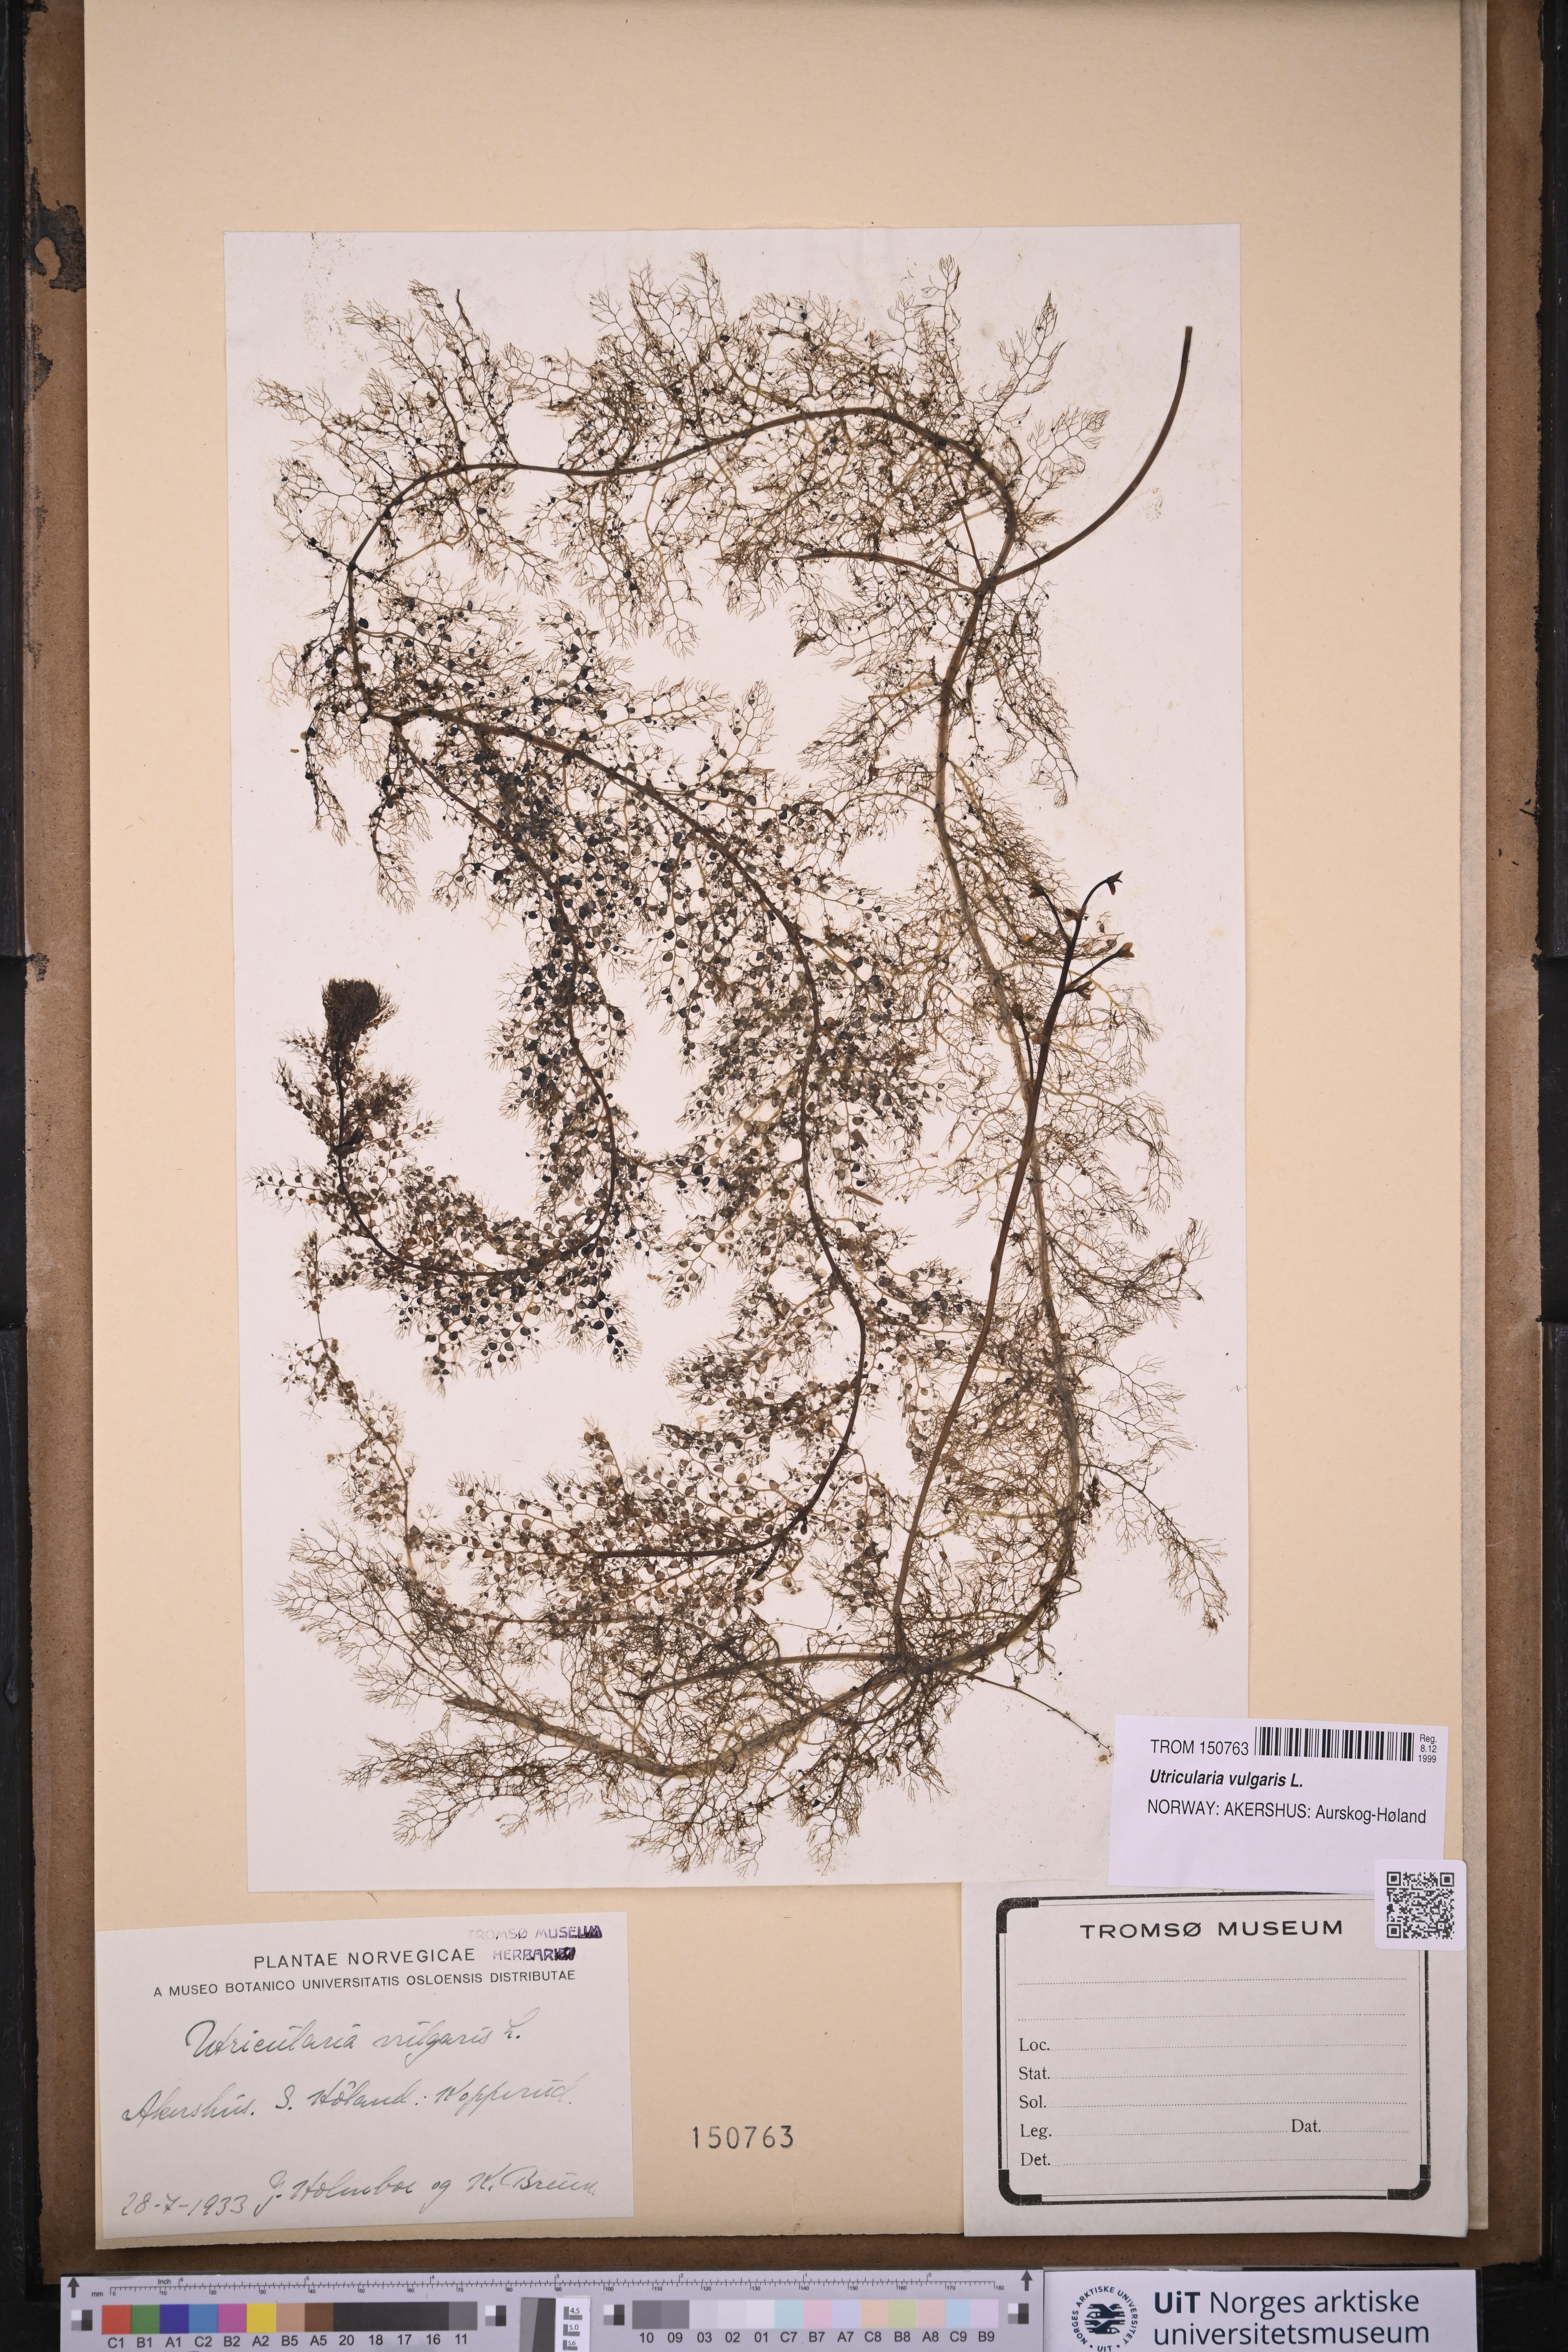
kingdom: Plantae
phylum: Tracheophyta
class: Magnoliopsida
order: Lamiales
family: Lentibulariaceae
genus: Utricularia
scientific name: Utricularia vulgaris
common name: Greater bladderwort
